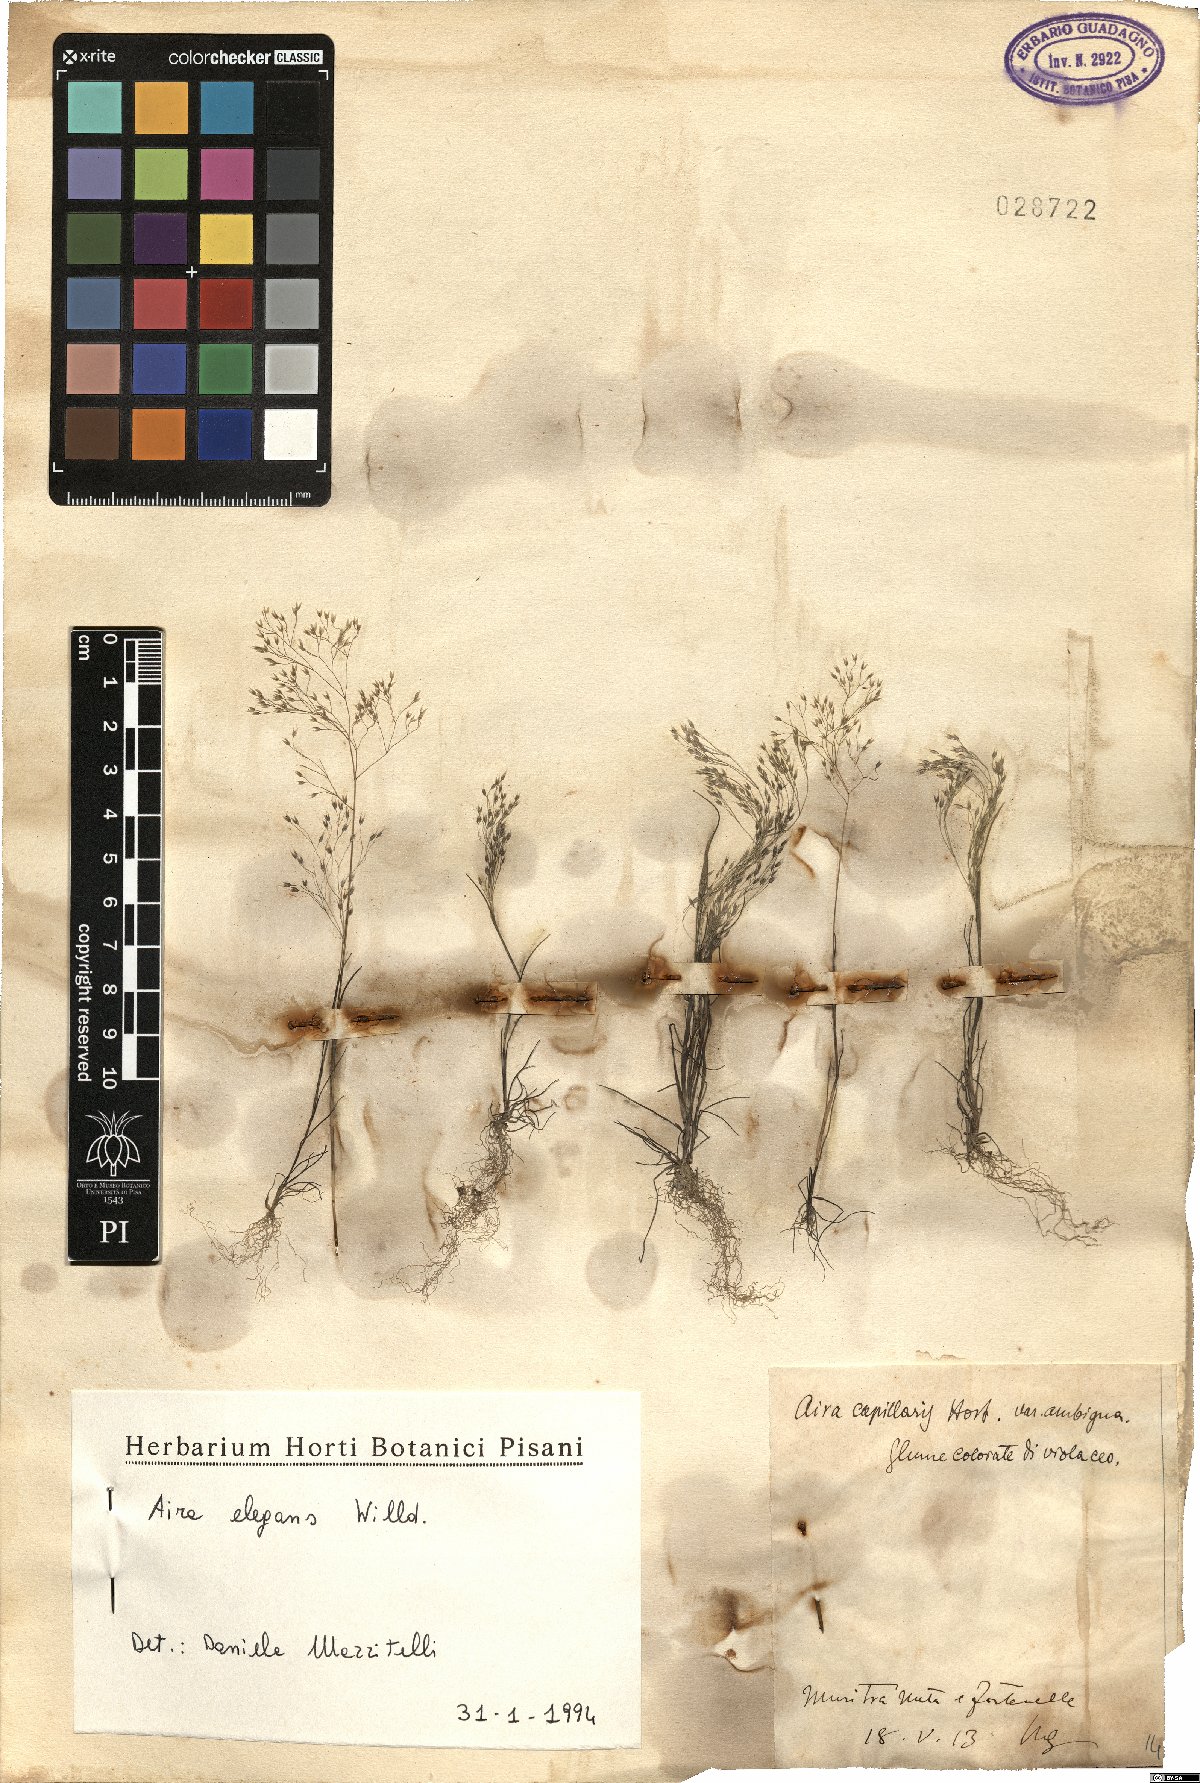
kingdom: Plantae
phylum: Tracheophyta
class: Liliopsida
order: Poales
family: Poaceae
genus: Aira
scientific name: Aira elegans
